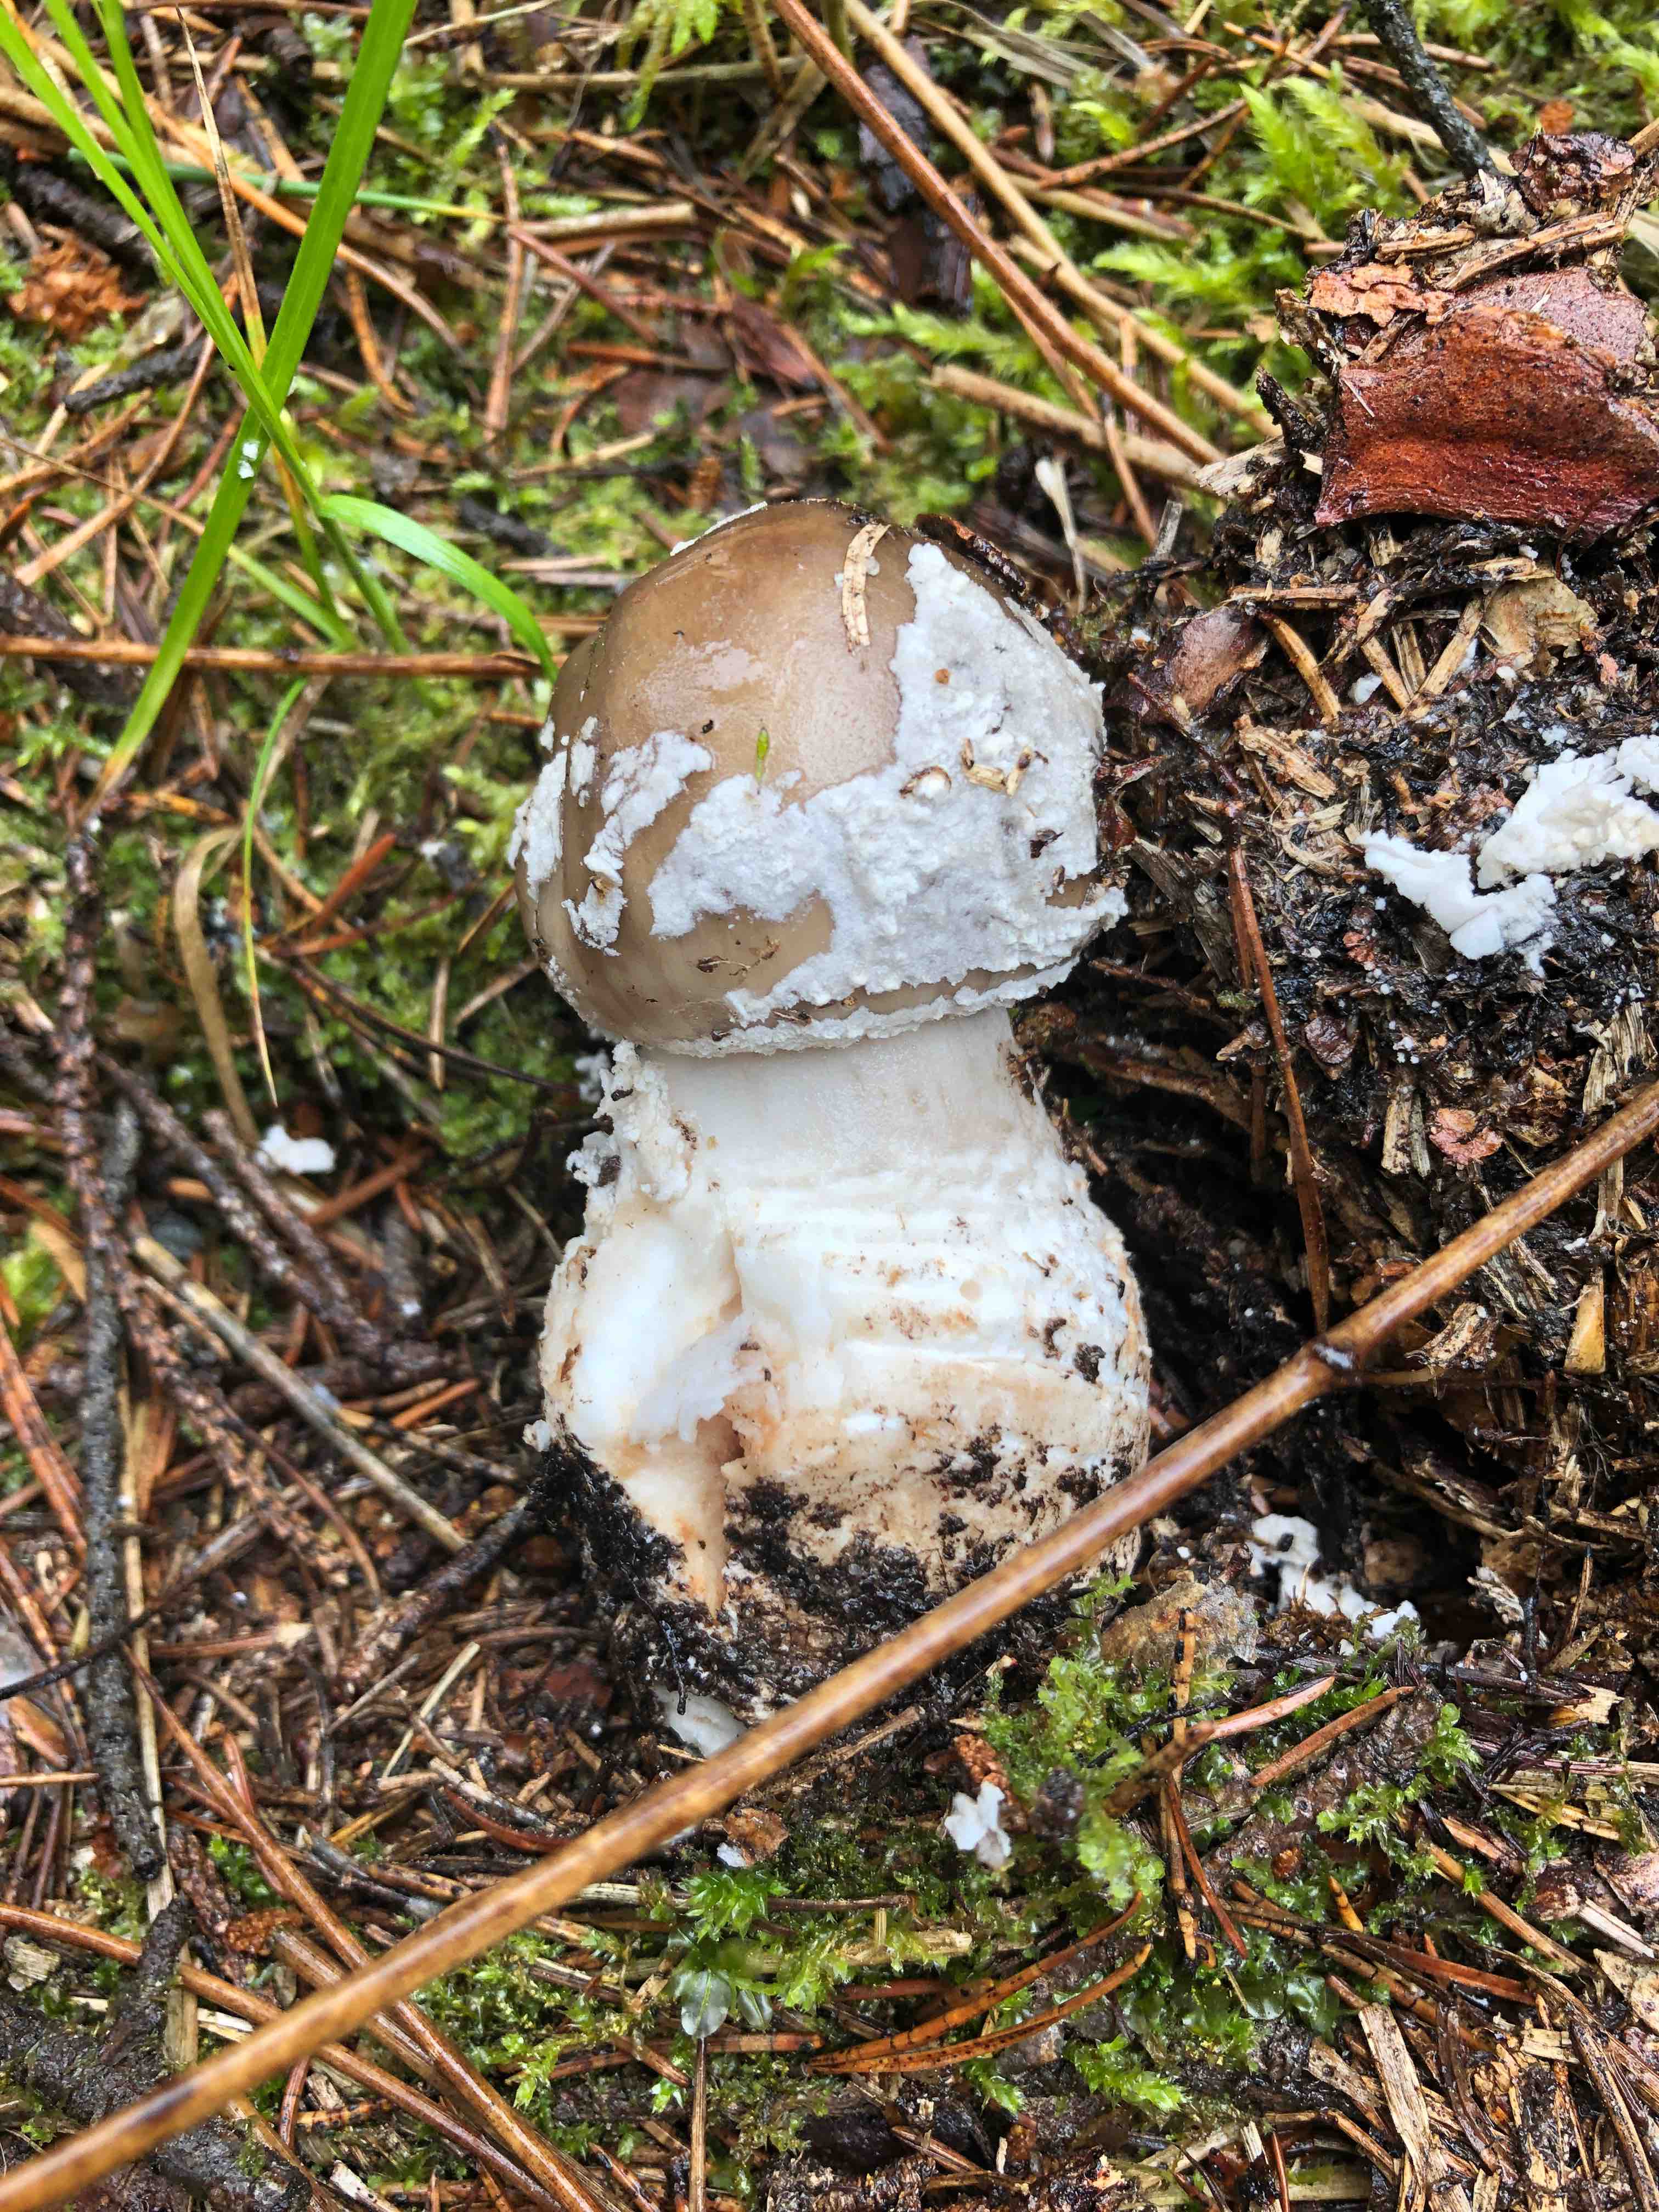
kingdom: Fungi
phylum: Basidiomycota
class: Agaricomycetes
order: Agaricales
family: Amanitaceae
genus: Amanita
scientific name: Amanita
